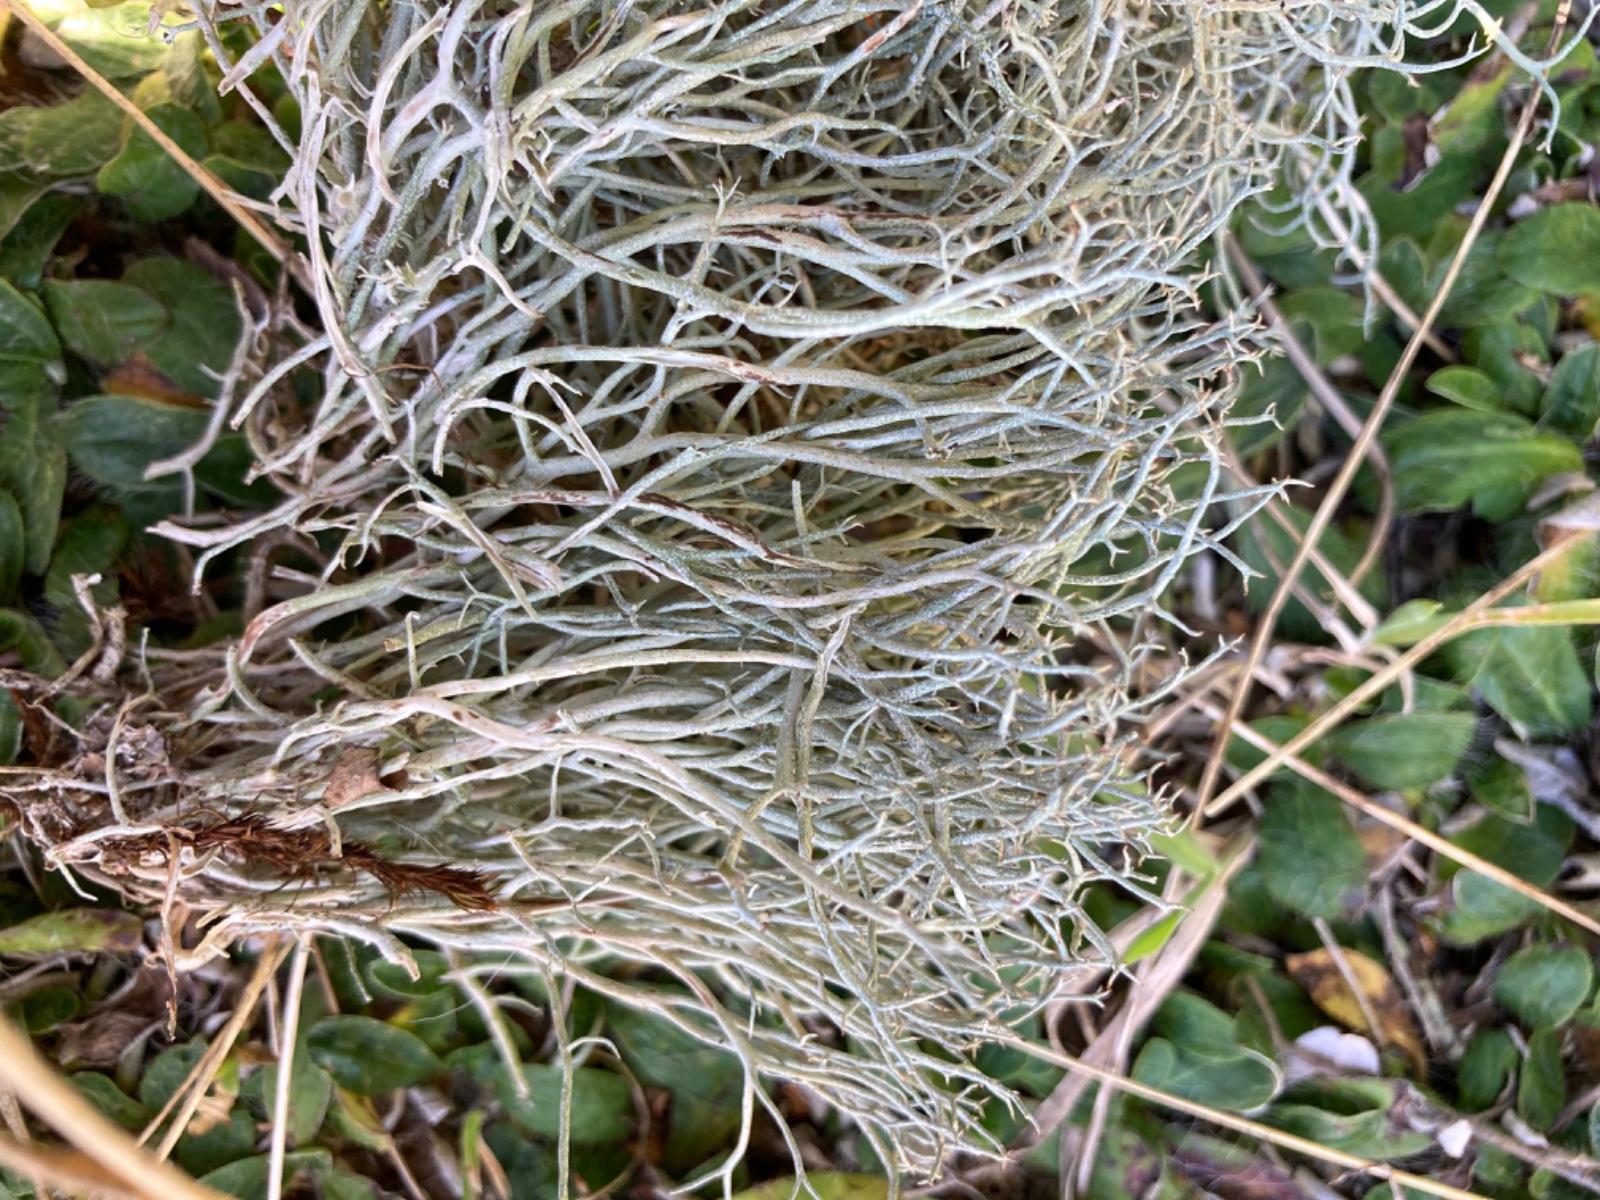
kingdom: Fungi
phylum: Ascomycota
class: Lecanoromycetes
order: Lecanorales
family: Cladoniaceae
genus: Cladonia
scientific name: Cladonia furcata
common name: kløftet bægerlav
